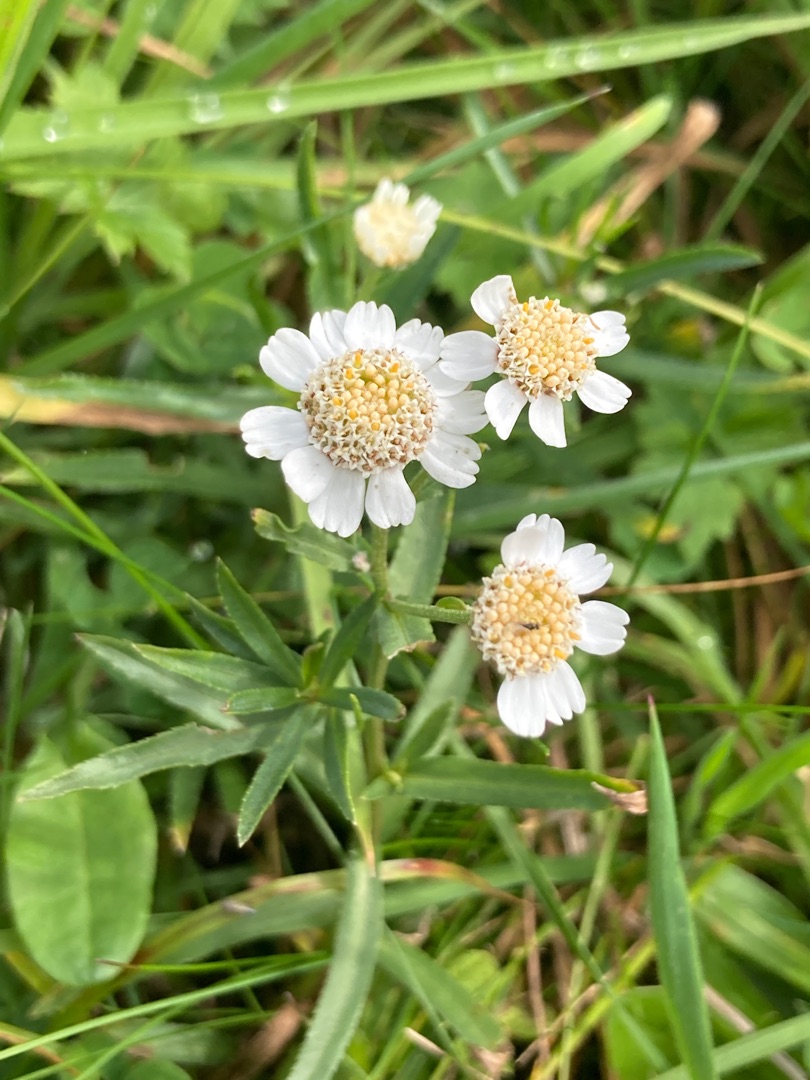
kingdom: Plantae
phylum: Tracheophyta
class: Magnoliopsida
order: Asterales
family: Asteraceae
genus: Achillea
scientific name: Achillea ptarmica
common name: Nyse-røllike
